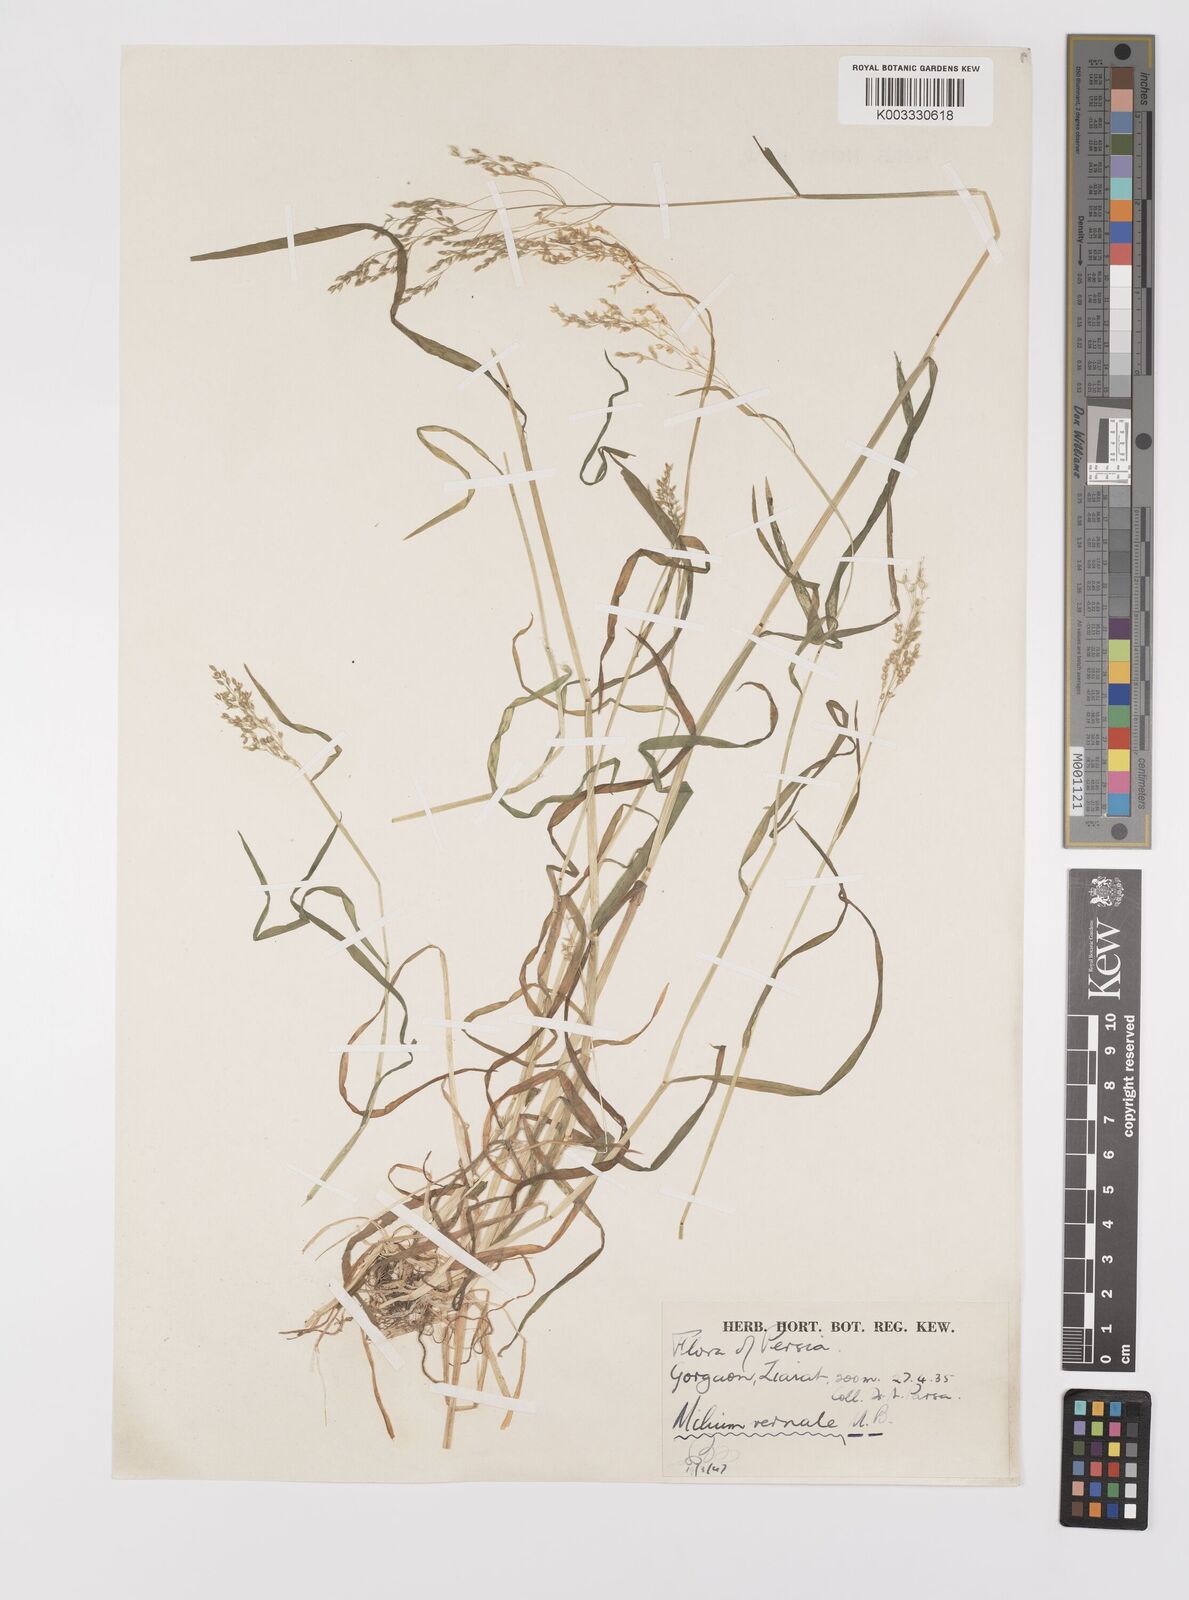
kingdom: Plantae
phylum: Tracheophyta
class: Liliopsida
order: Poales
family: Poaceae
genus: Milium
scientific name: Milium vernale
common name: Early millet
